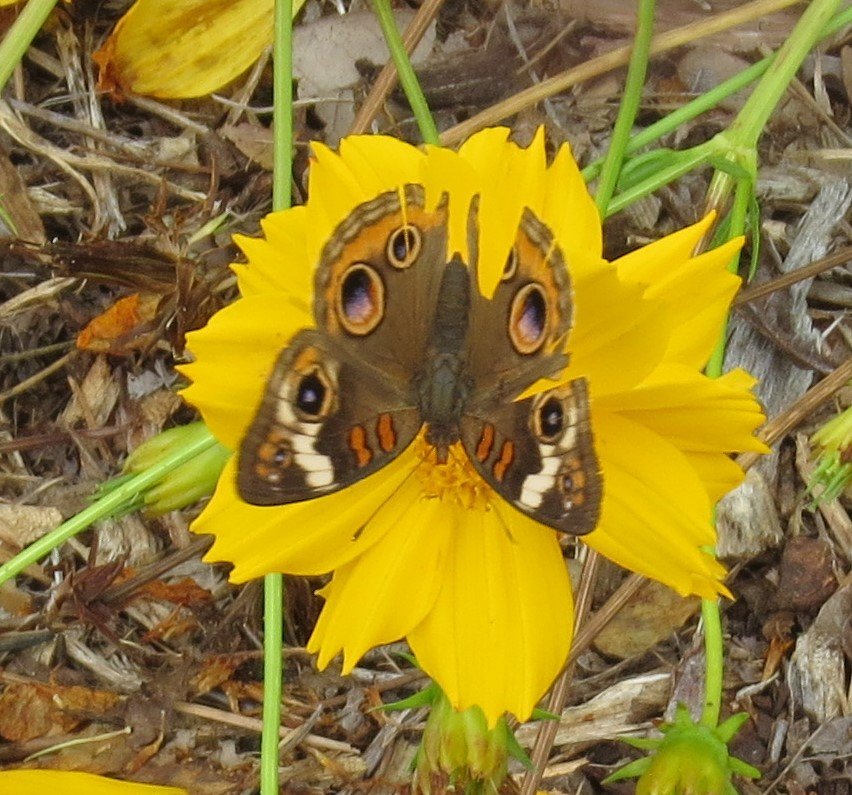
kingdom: Animalia
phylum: Arthropoda
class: Insecta
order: Lepidoptera
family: Nymphalidae
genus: Junonia
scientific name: Junonia coenia
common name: Common Buckeye
